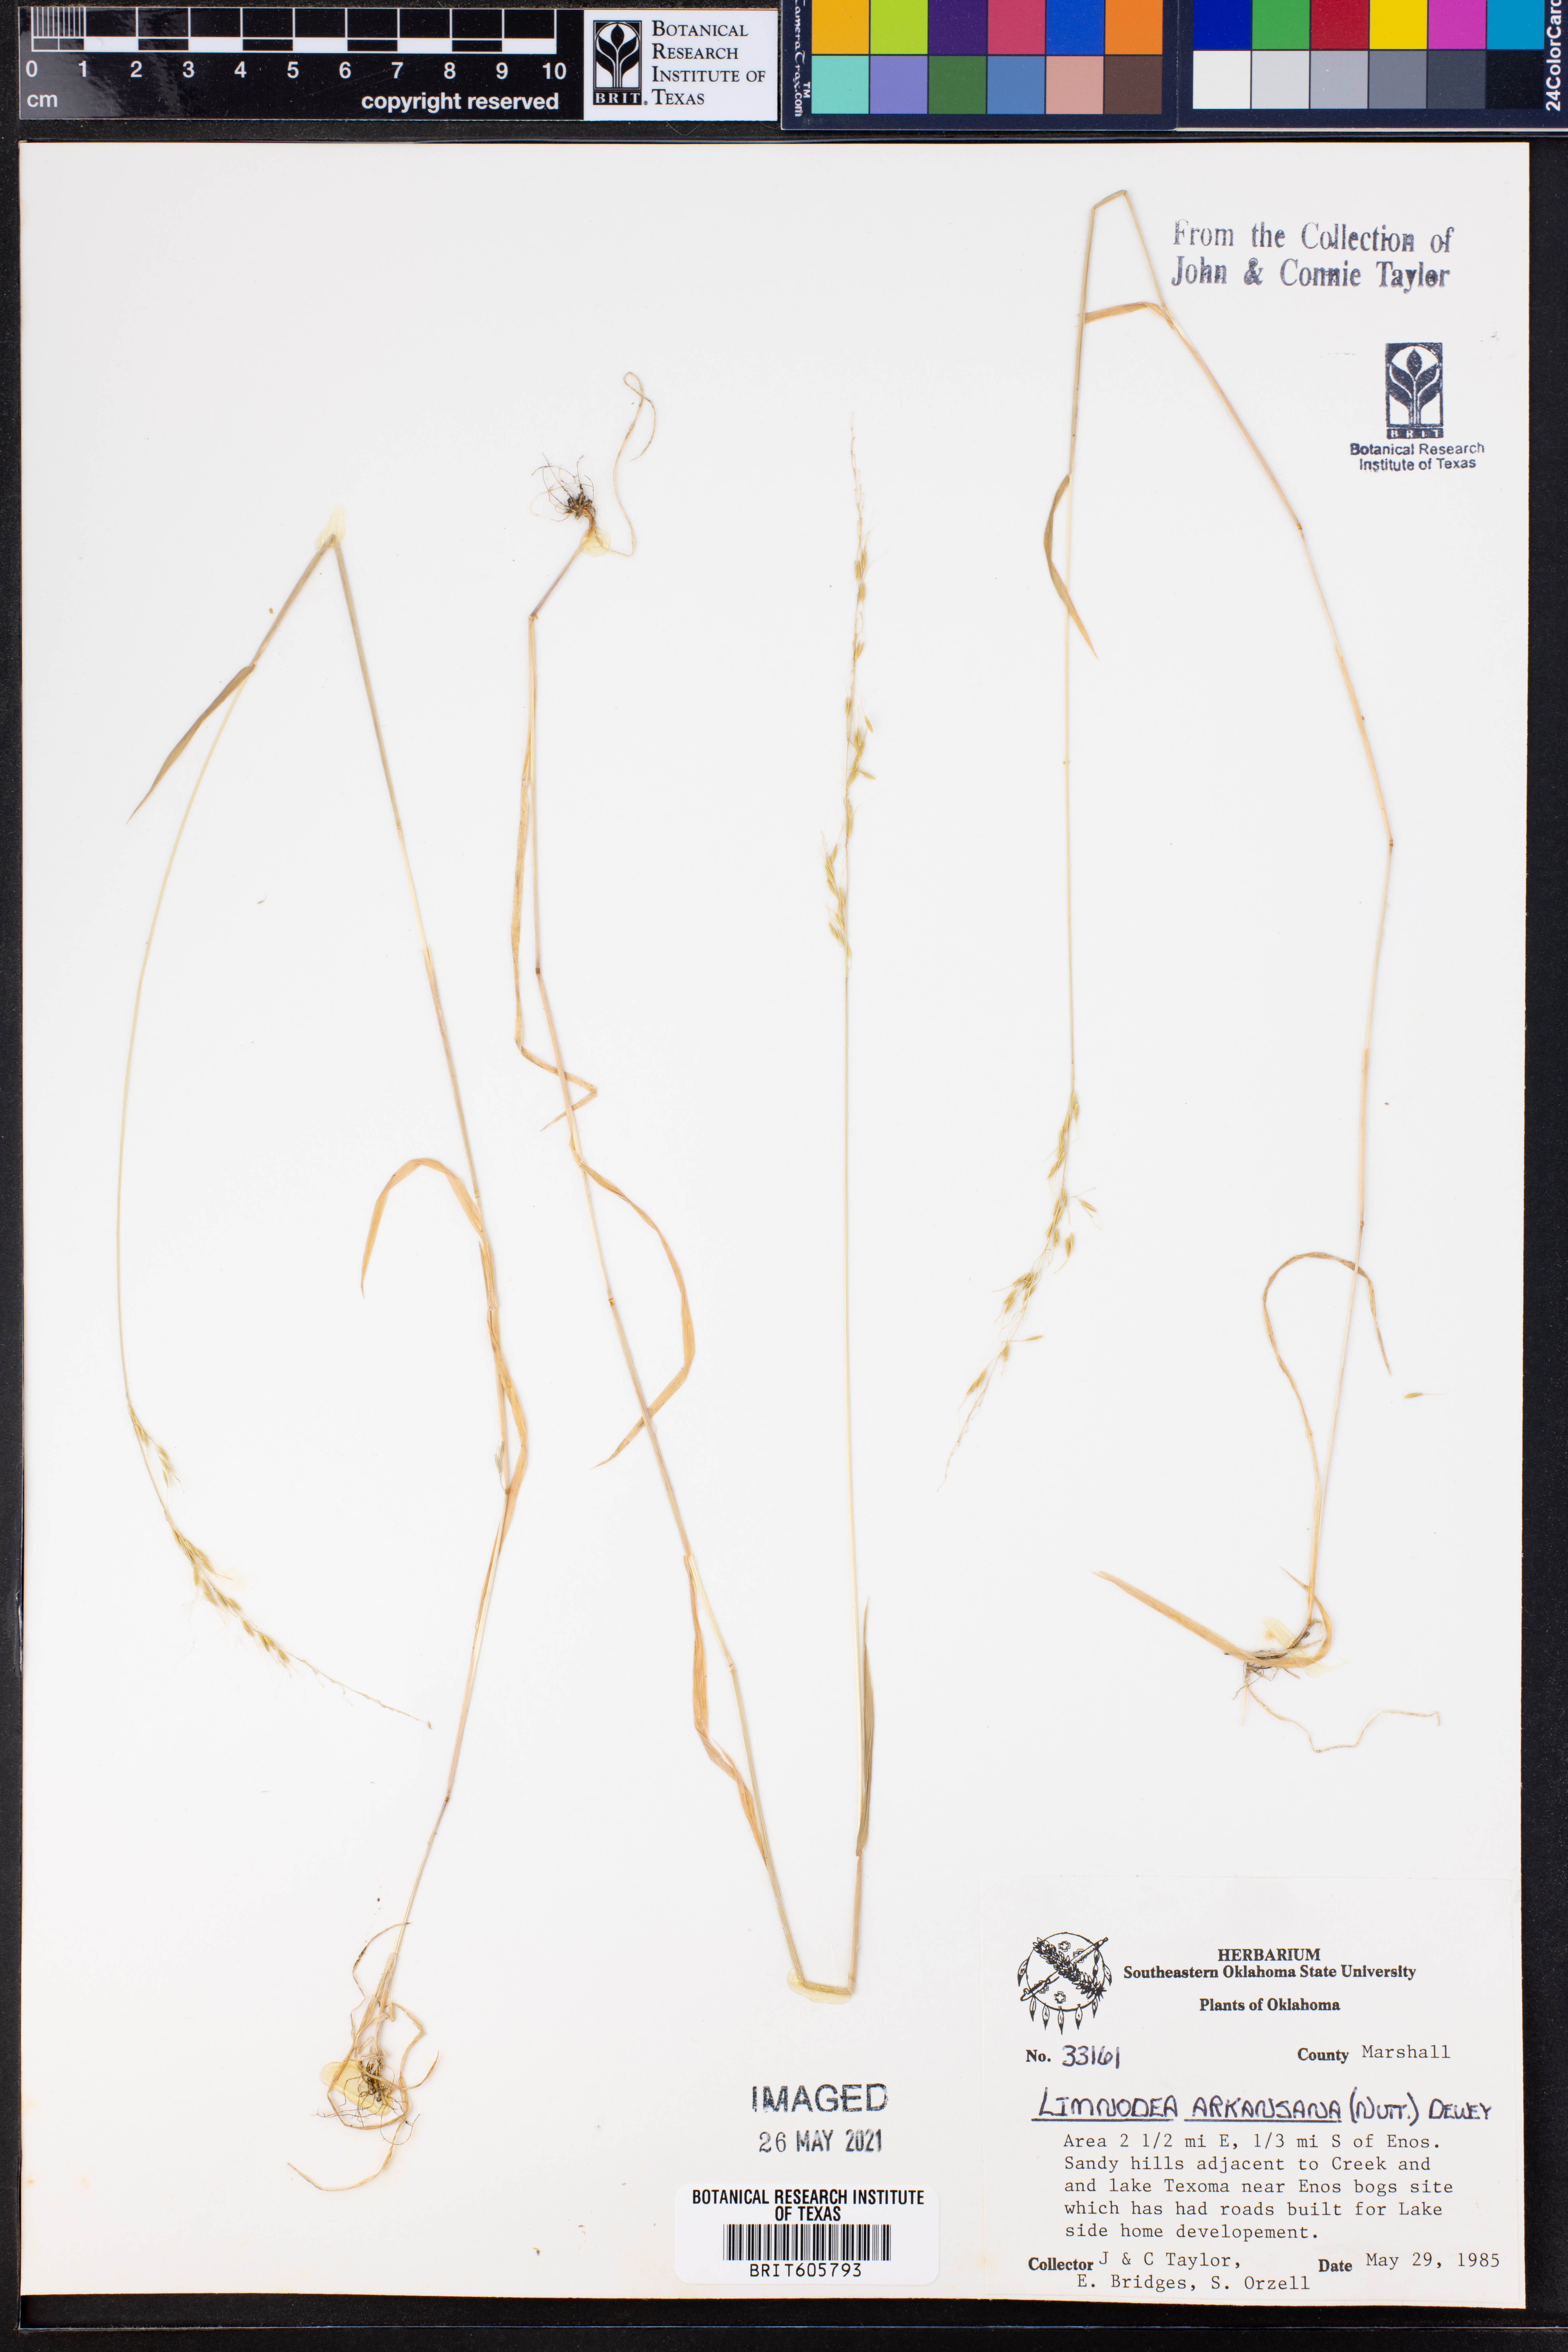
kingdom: Plantae
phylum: Tracheophyta
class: Liliopsida
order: Poales
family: Poaceae
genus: Limnodea
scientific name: Limnodea arkansana
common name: Ozark-grass
